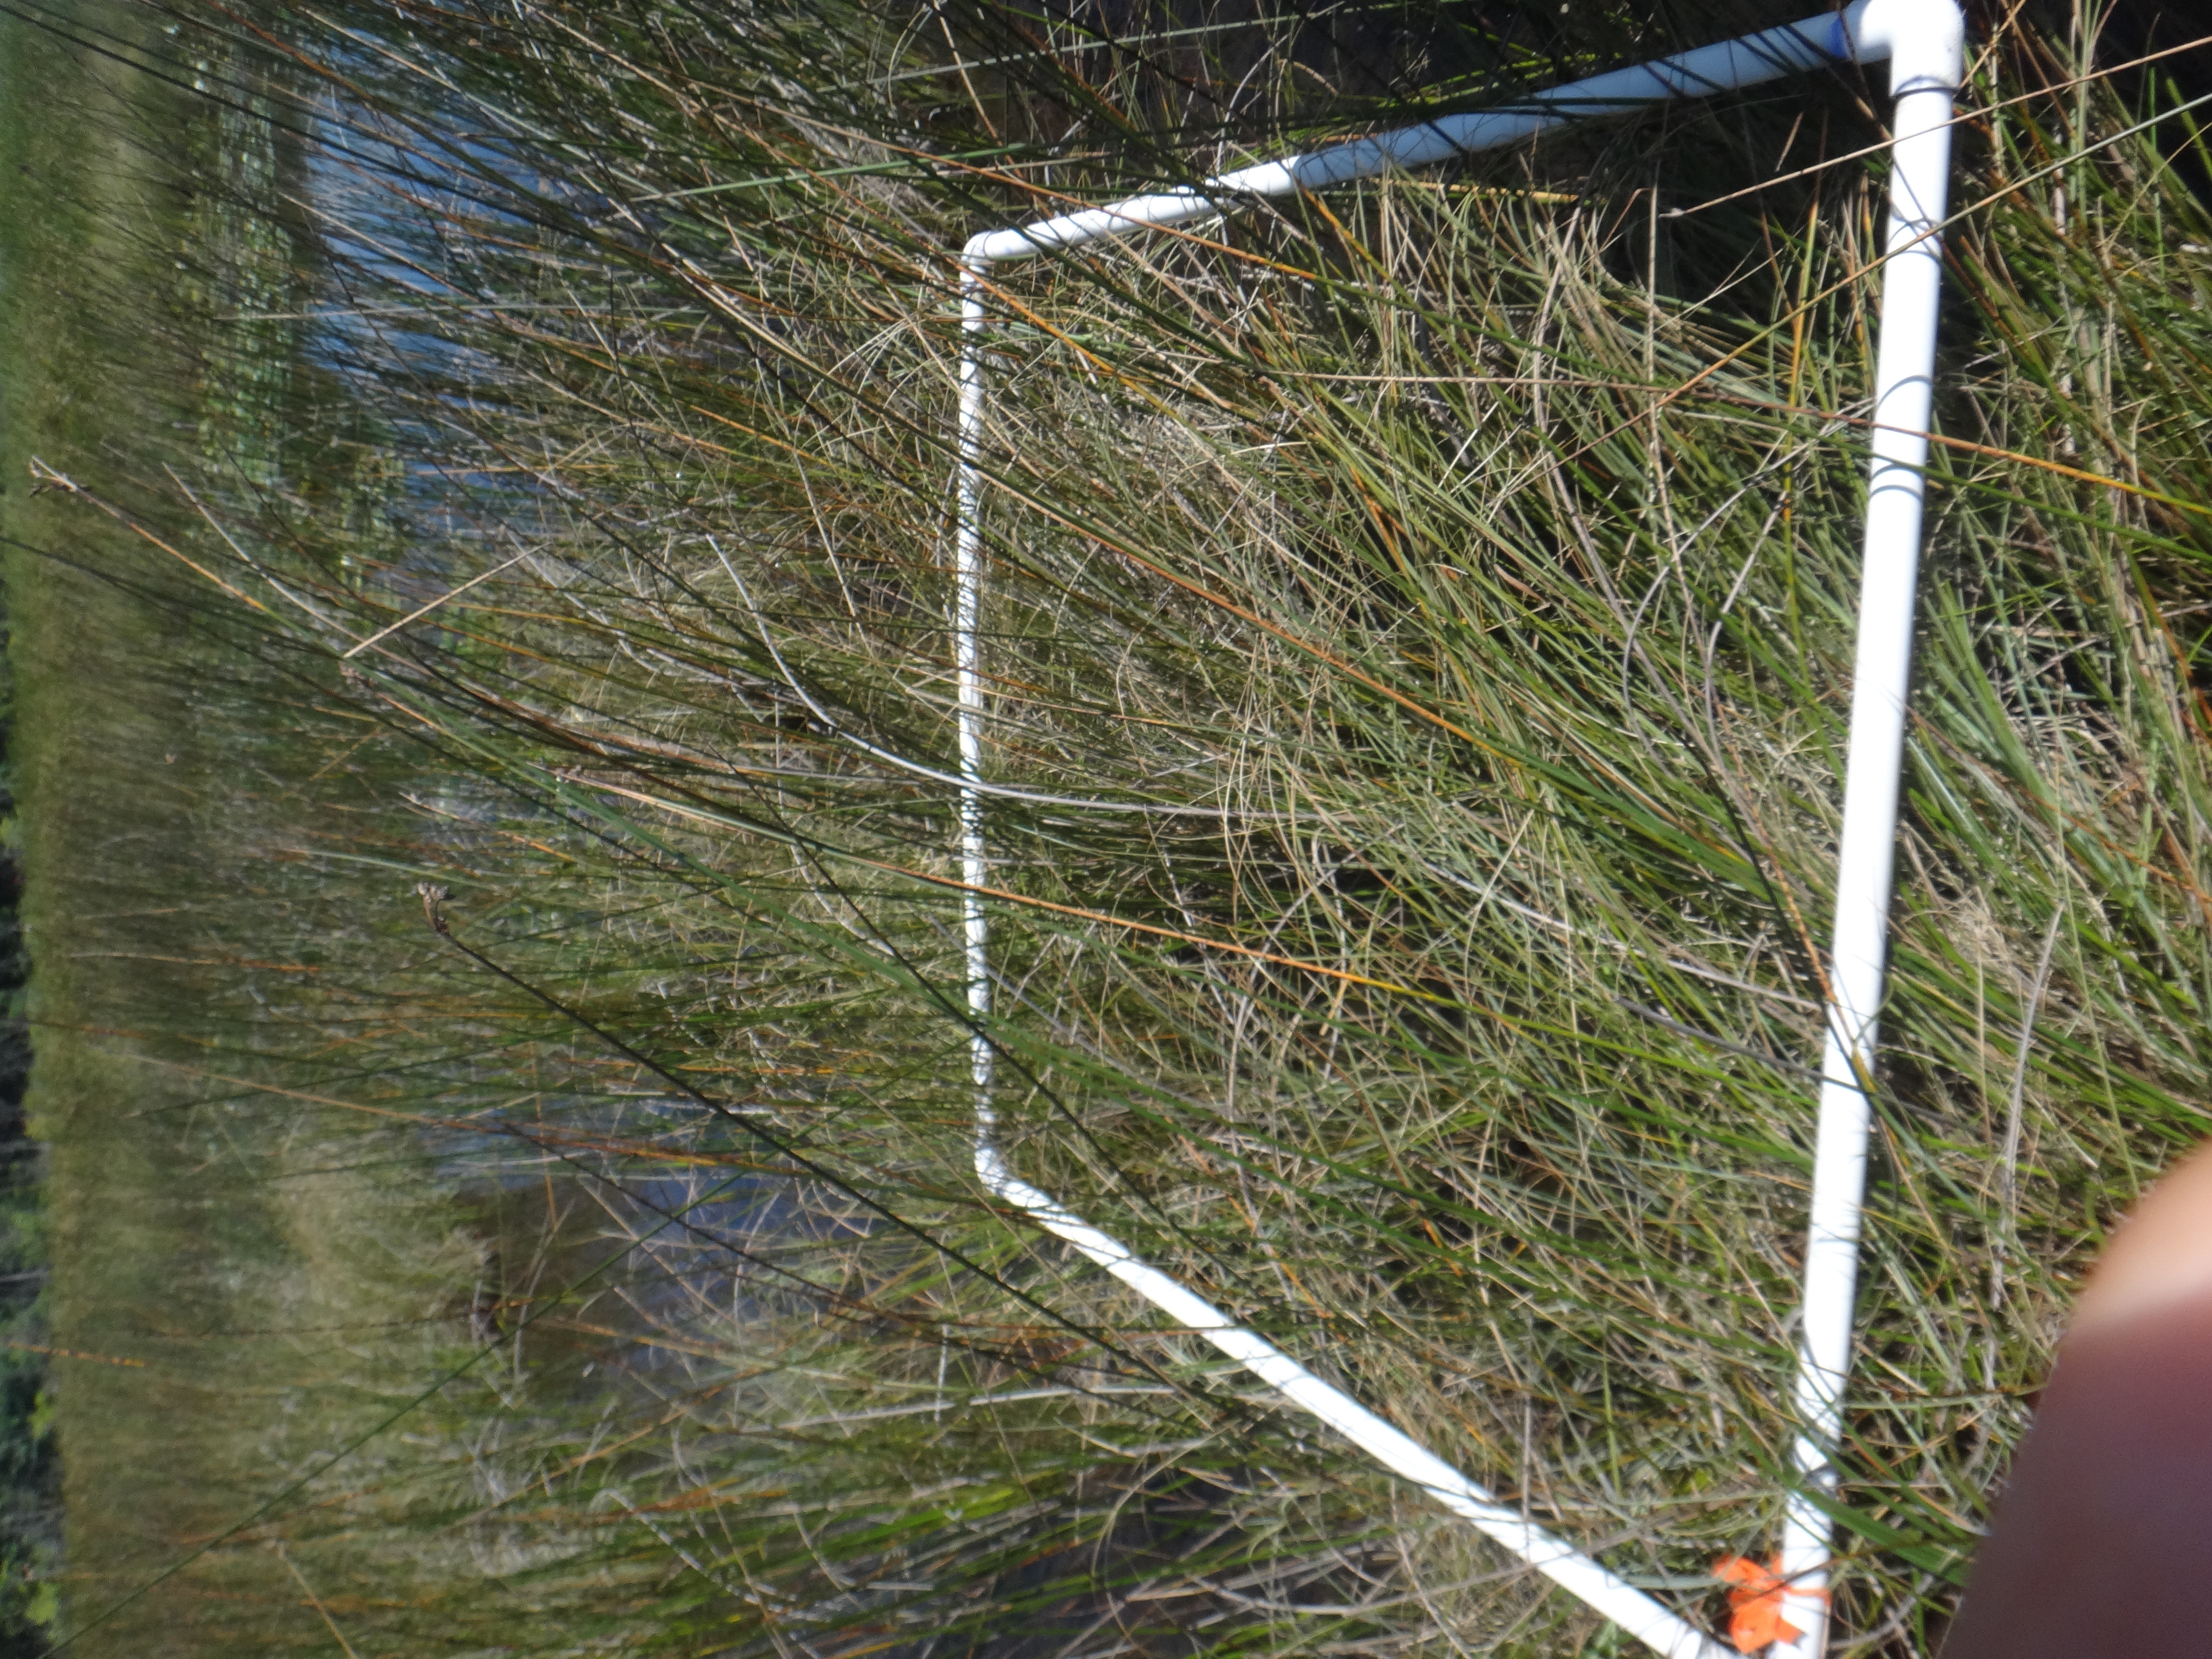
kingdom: Plantae
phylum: Tracheophyta
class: Liliopsida
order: Poales
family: Cyperaceae
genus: Schoenoplectus
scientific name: Schoenoplectus tabernaemontani
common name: Grey club-rush
